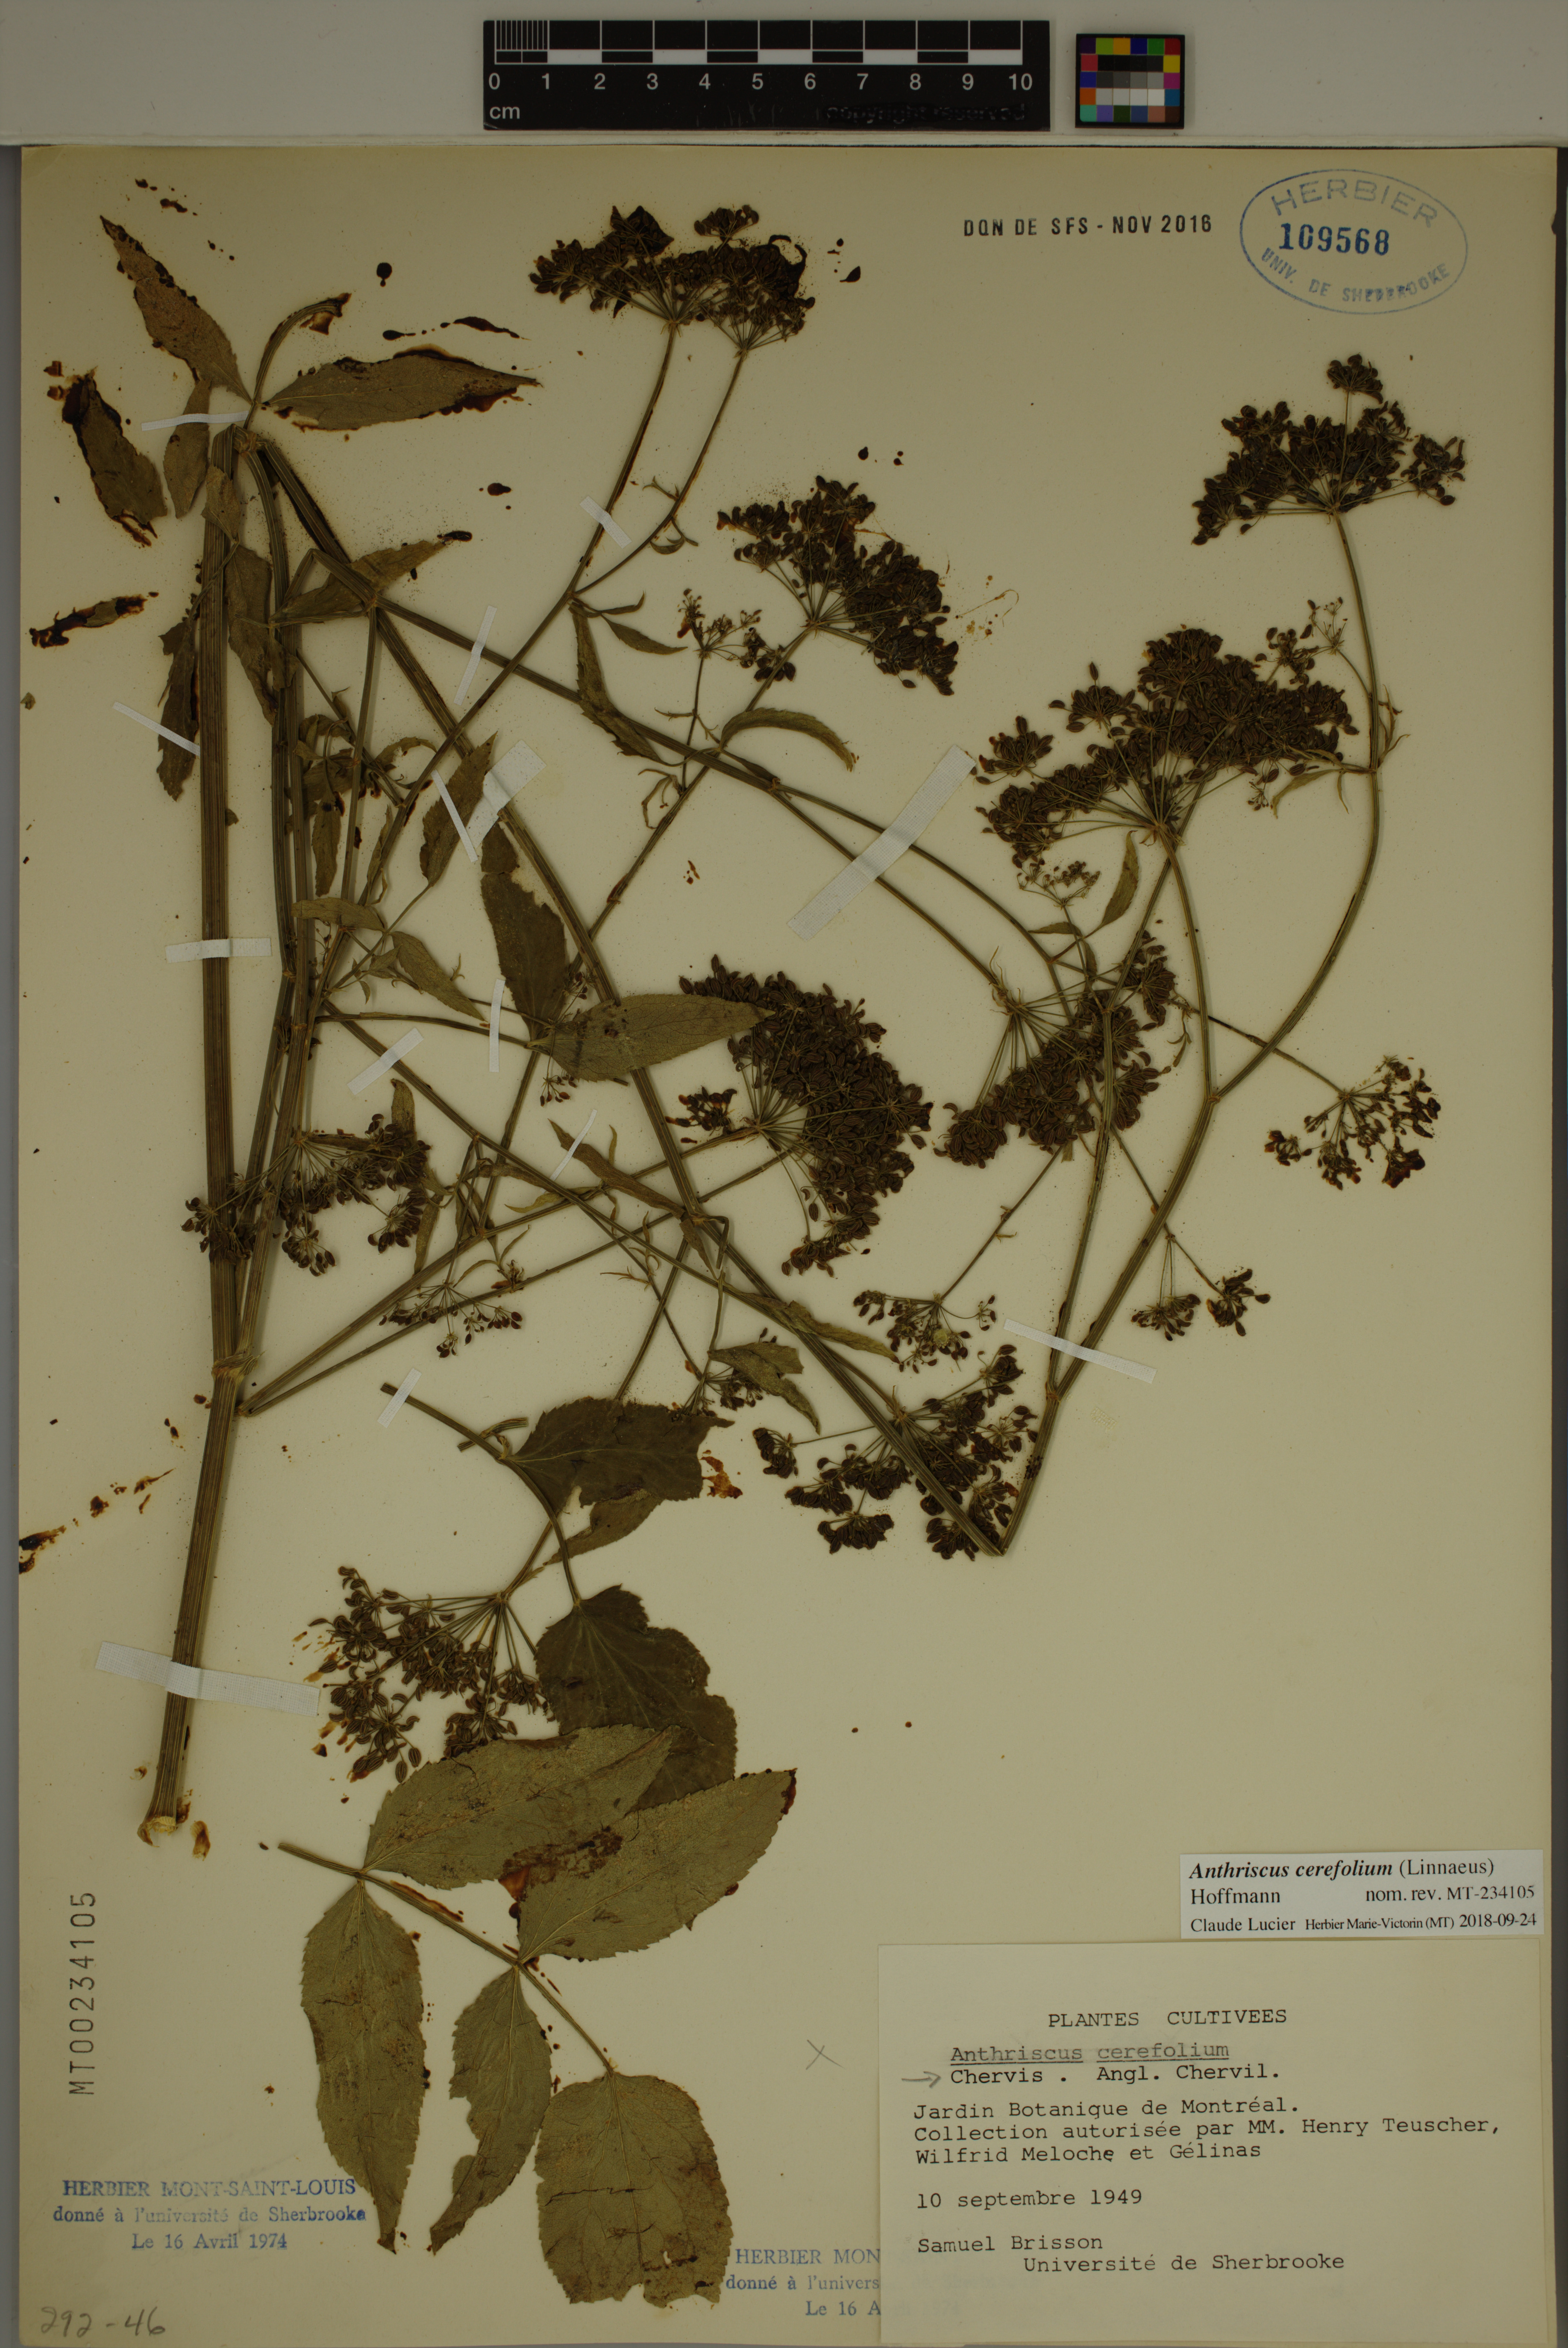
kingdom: Plantae
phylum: Tracheophyta
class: Magnoliopsida
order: Apiales
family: Apiaceae
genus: Anthriscus
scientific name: Anthriscus cerefolium
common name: Garden chervil
